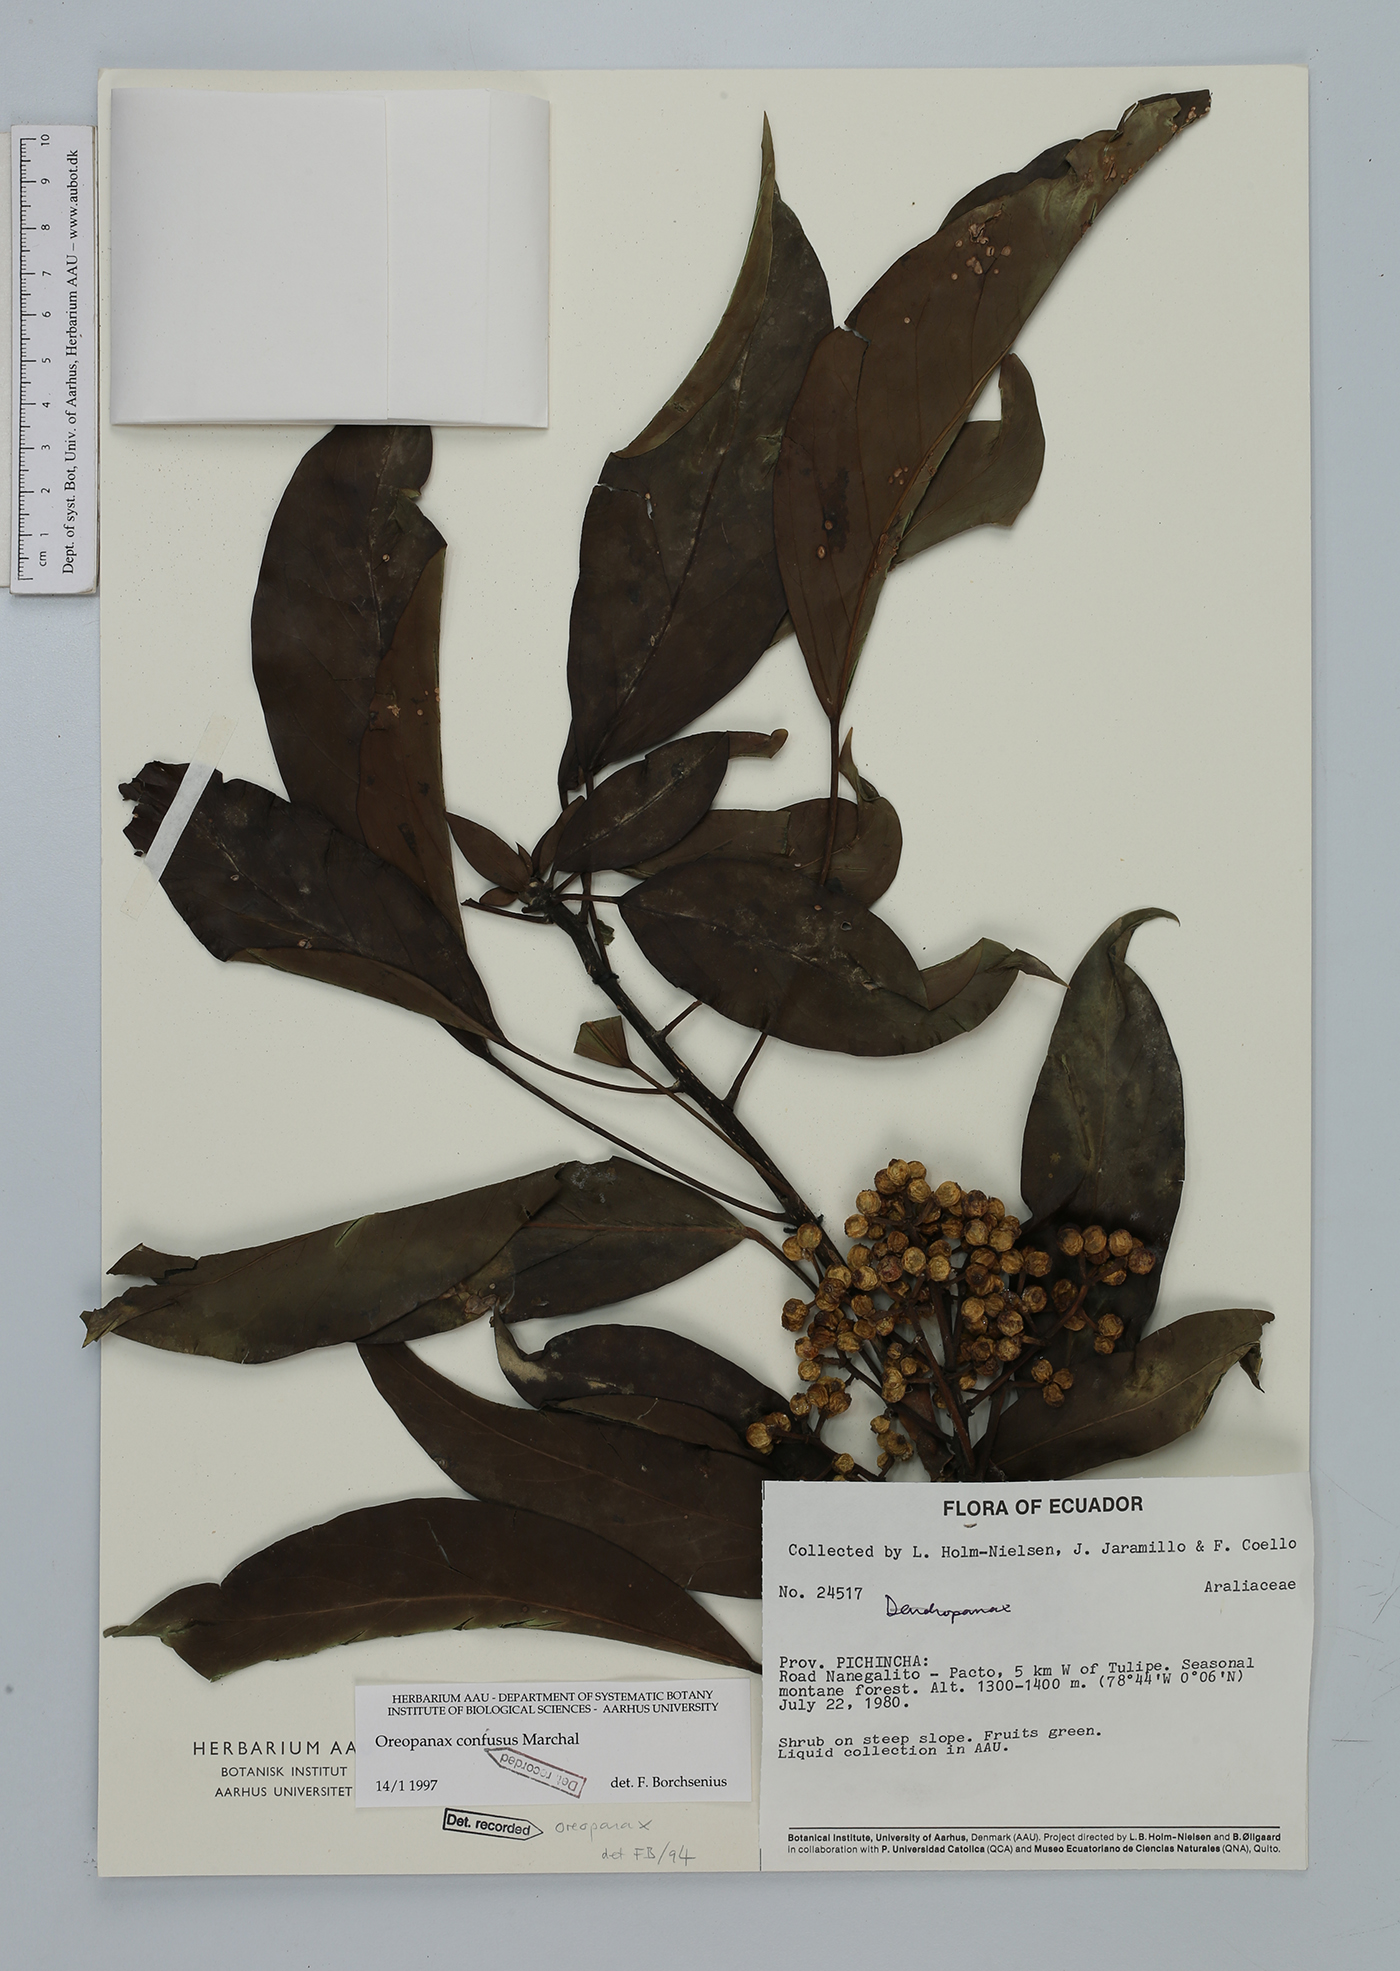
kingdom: Plantae
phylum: Tracheophyta
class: Magnoliopsida
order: Apiales
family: Araliaceae
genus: Oreopanax
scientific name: Oreopanax confusus
